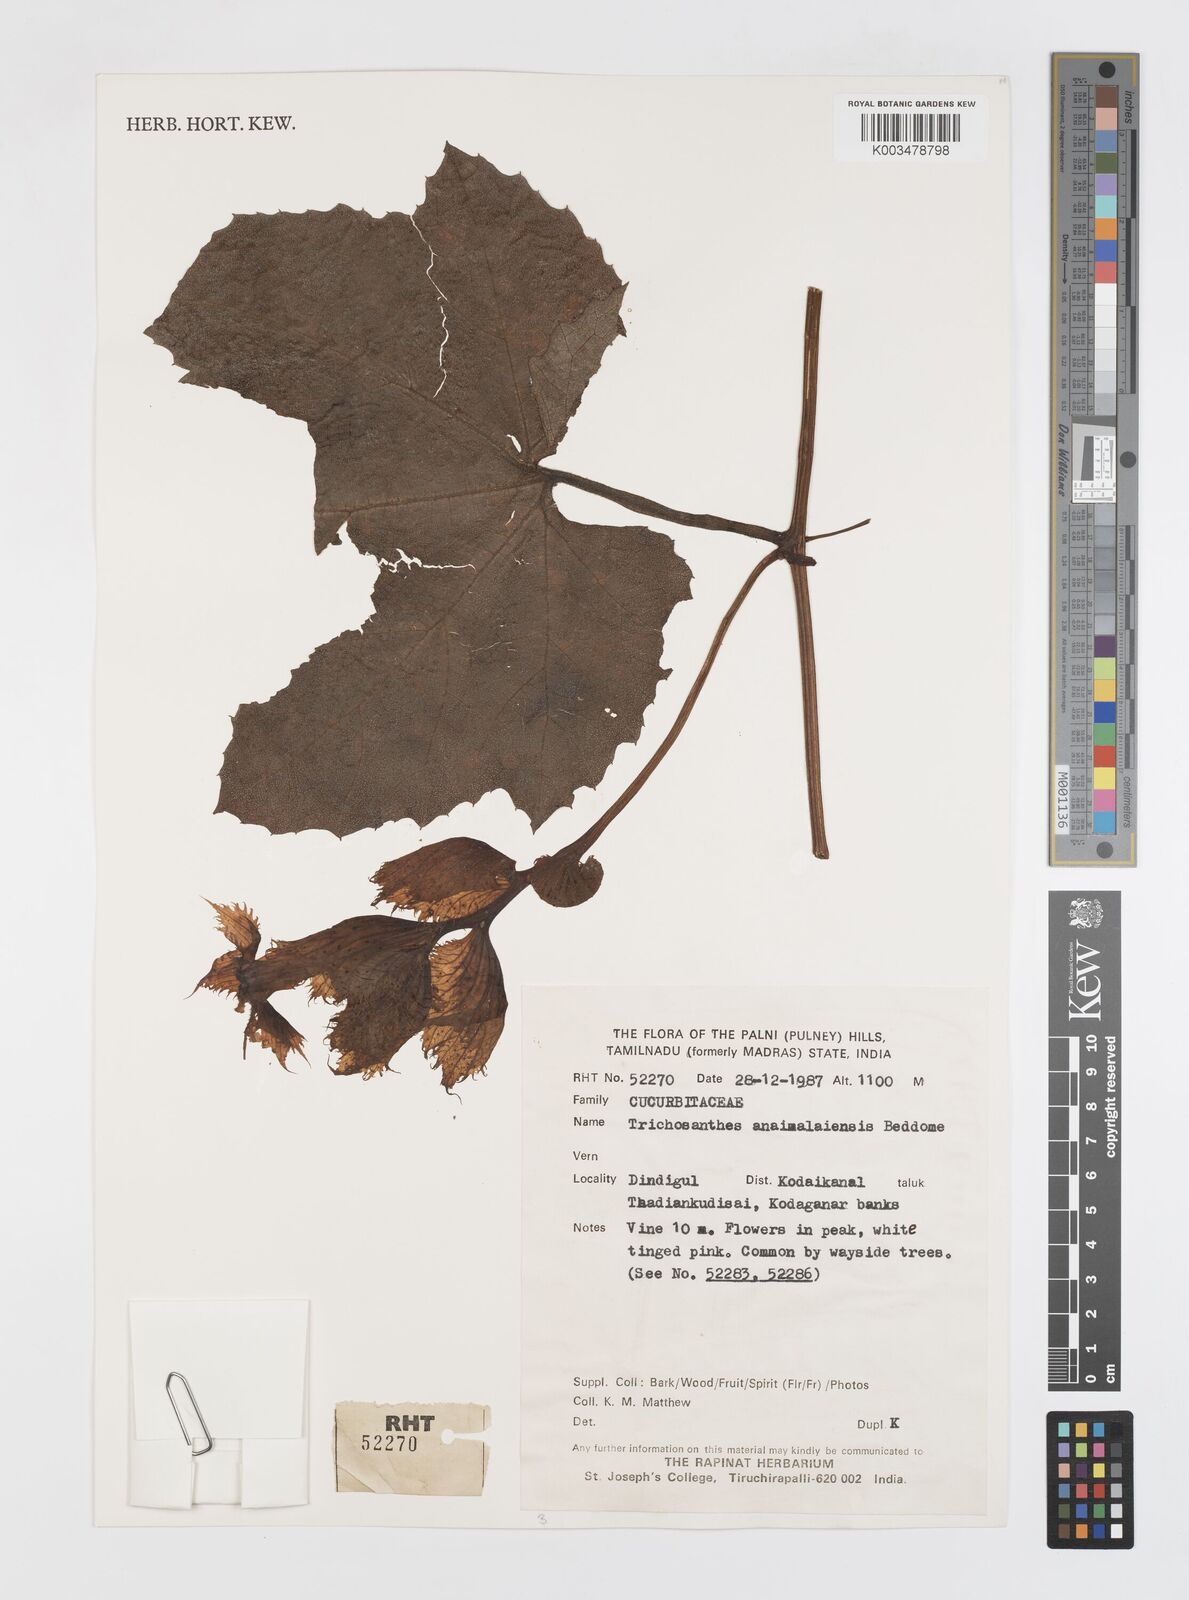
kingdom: Plantae
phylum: Tracheophyta
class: Magnoliopsida
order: Cucurbitales
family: Cucurbitaceae
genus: Trichosanthes
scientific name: Trichosanthes anaimalaiensis
